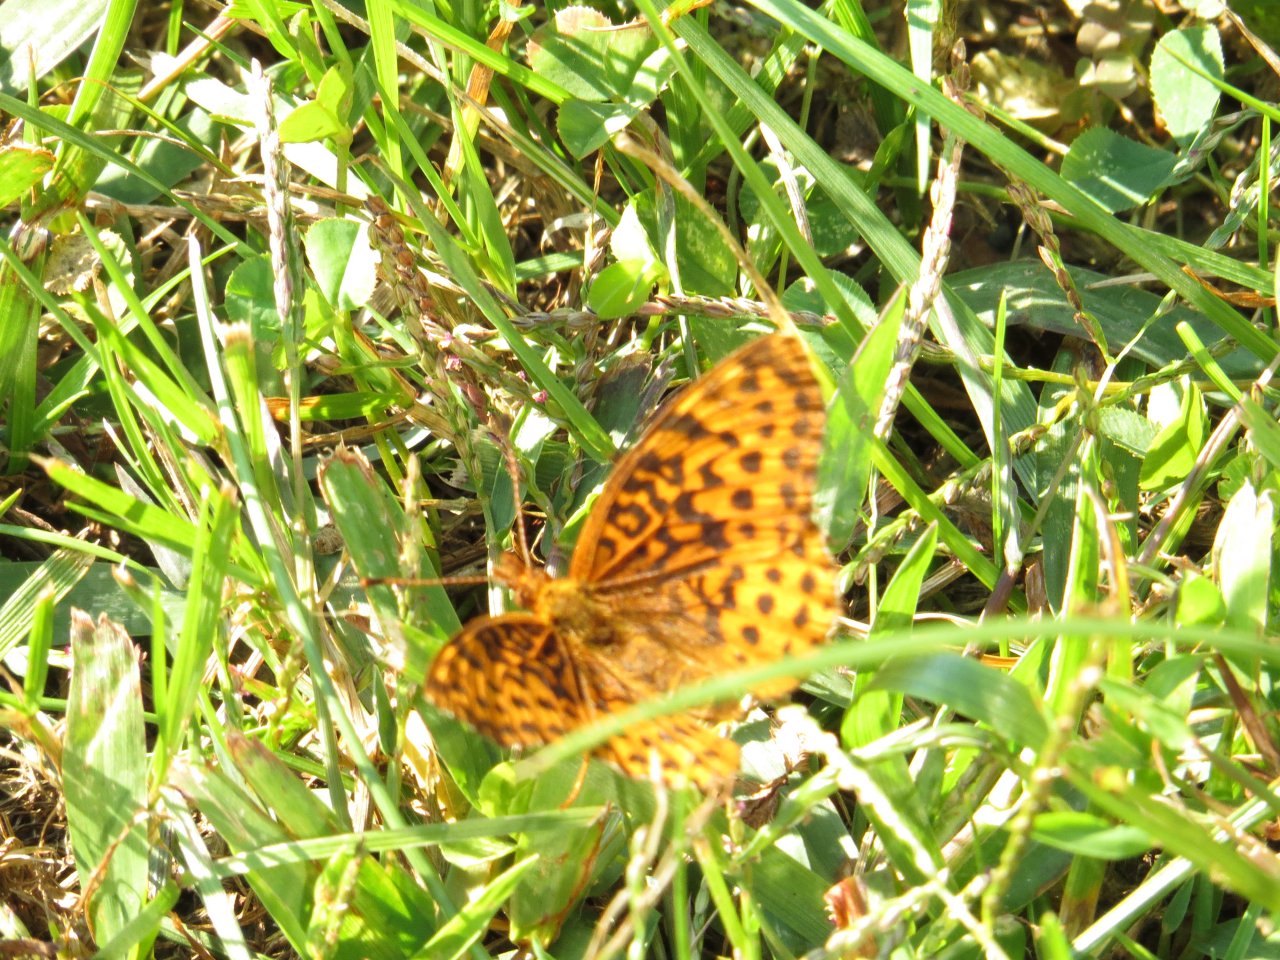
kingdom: Animalia
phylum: Arthropoda
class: Insecta
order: Lepidoptera
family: Nymphalidae
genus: Clossiana
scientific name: Clossiana toddi
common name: Meadow Fritillary
